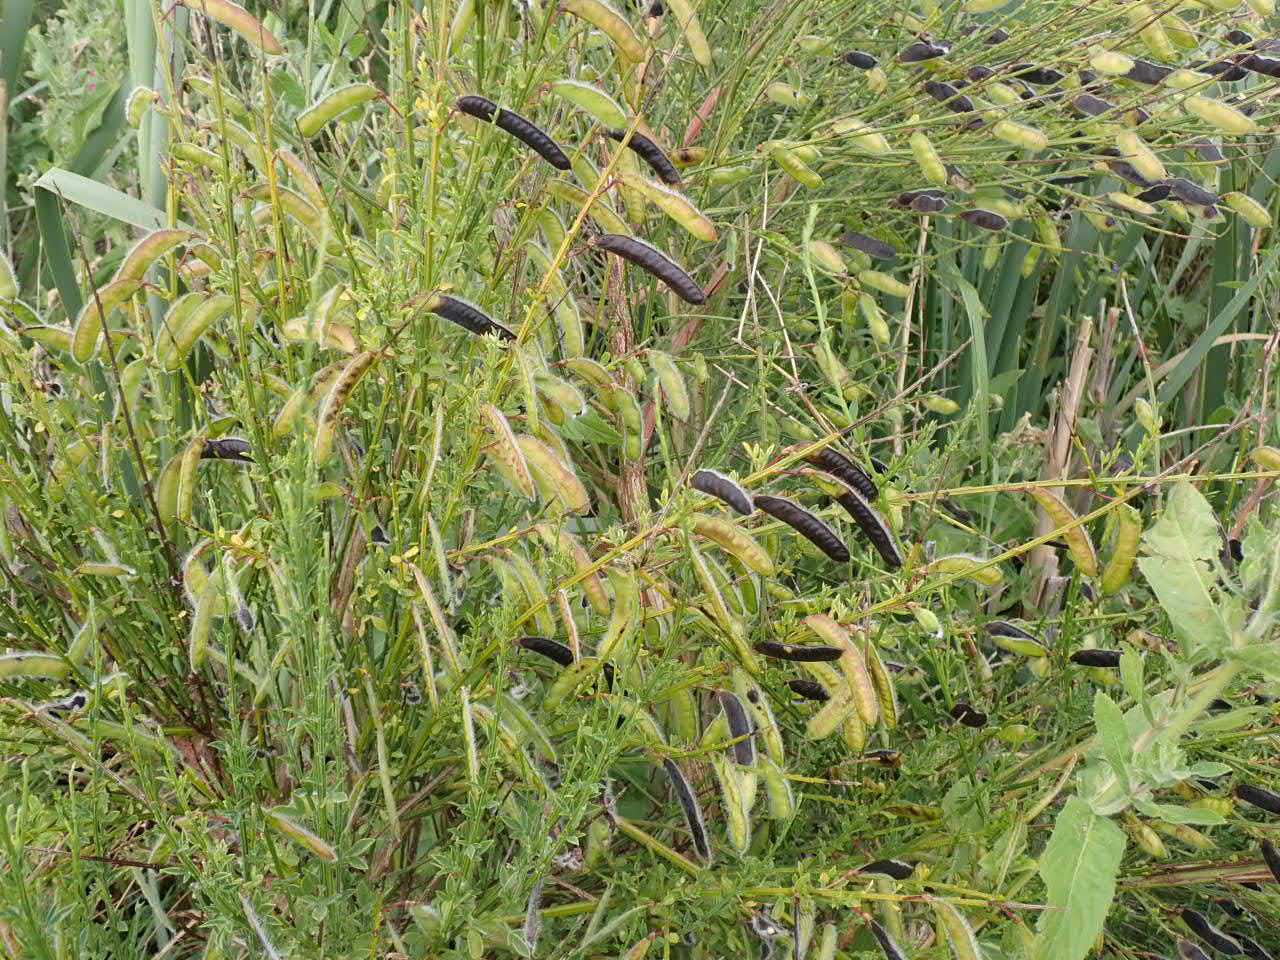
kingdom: Plantae
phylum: Tracheophyta
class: Magnoliopsida
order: Fabales
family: Fabaceae
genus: Cytisus
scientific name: Cytisus scoparius
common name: Almindelig gyvel
